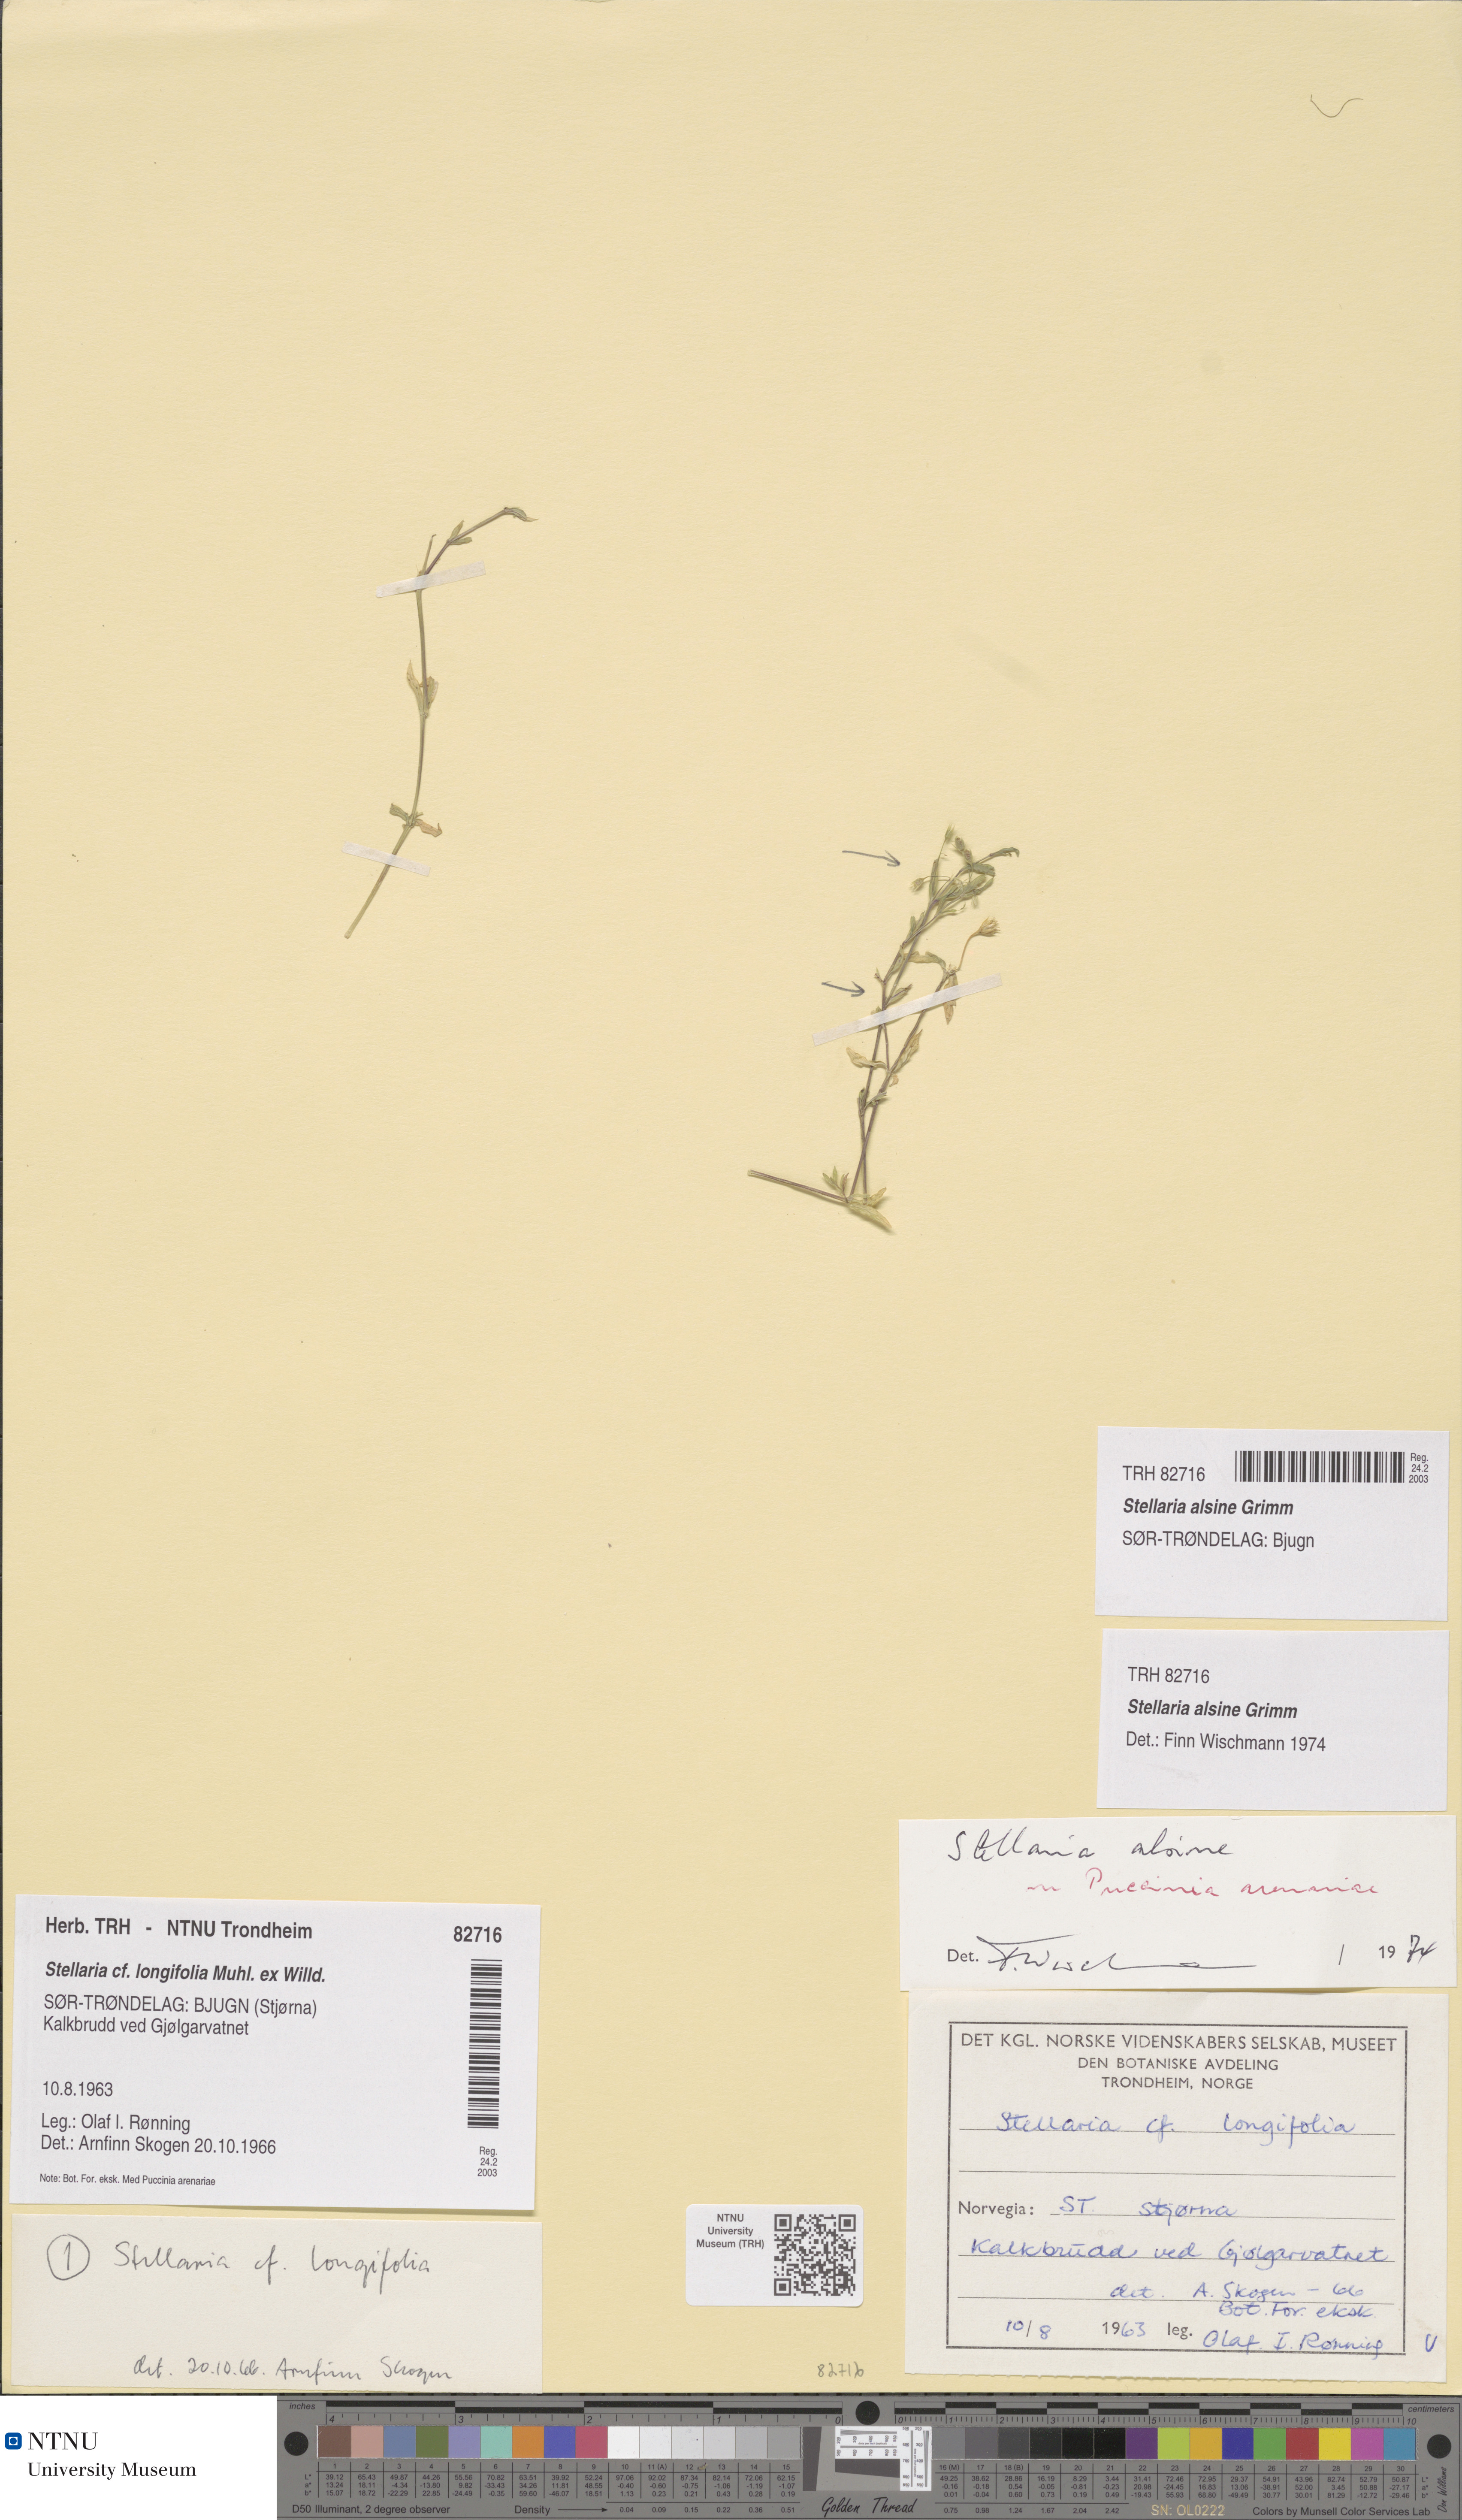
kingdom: Plantae
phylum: Tracheophyta
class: Magnoliopsida
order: Caryophyllales
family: Caryophyllaceae
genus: Stellaria
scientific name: Stellaria alsine
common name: Bog stitchwort
